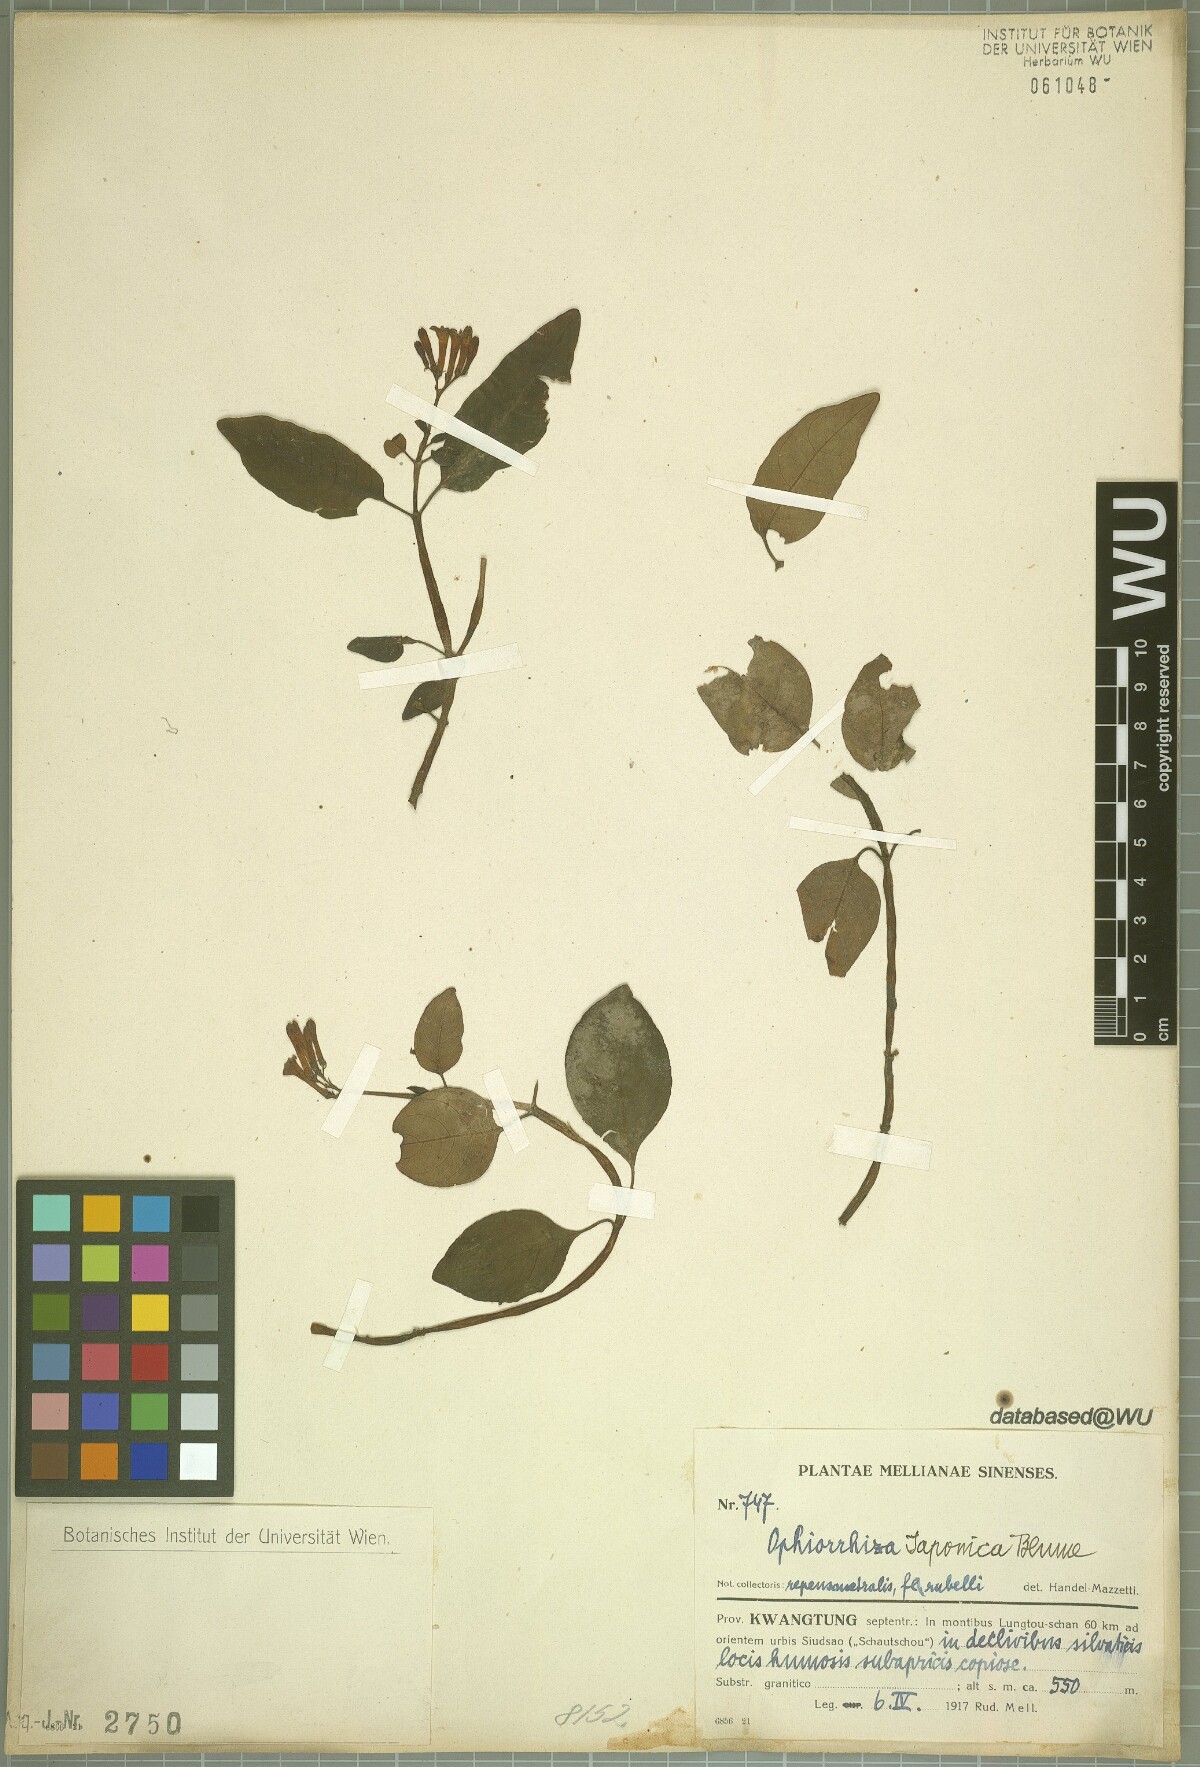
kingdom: Plantae
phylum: Tracheophyta
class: Magnoliopsida
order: Gentianales
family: Rubiaceae
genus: Ophiorrhiza
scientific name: Ophiorrhiza japonica
